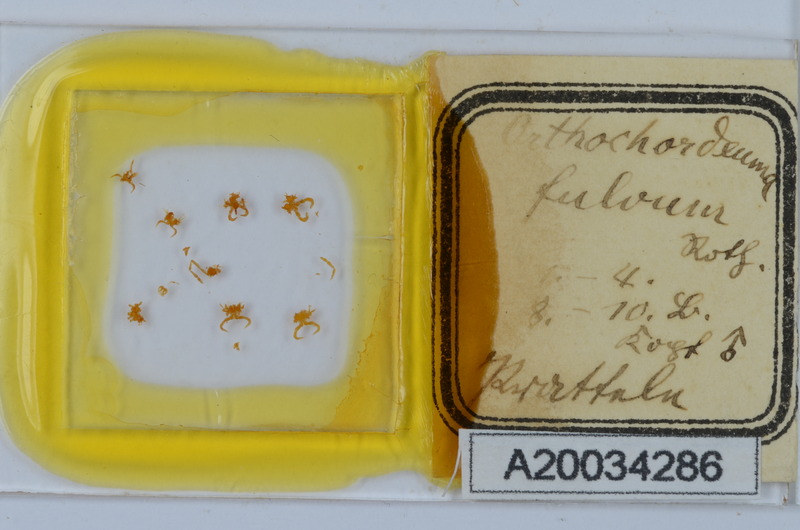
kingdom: Animalia
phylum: Arthropoda
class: Diplopoda
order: Chordeumatida
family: Chordeumatidae
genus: Orthochordeumella
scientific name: Orthochordeumella fulva
